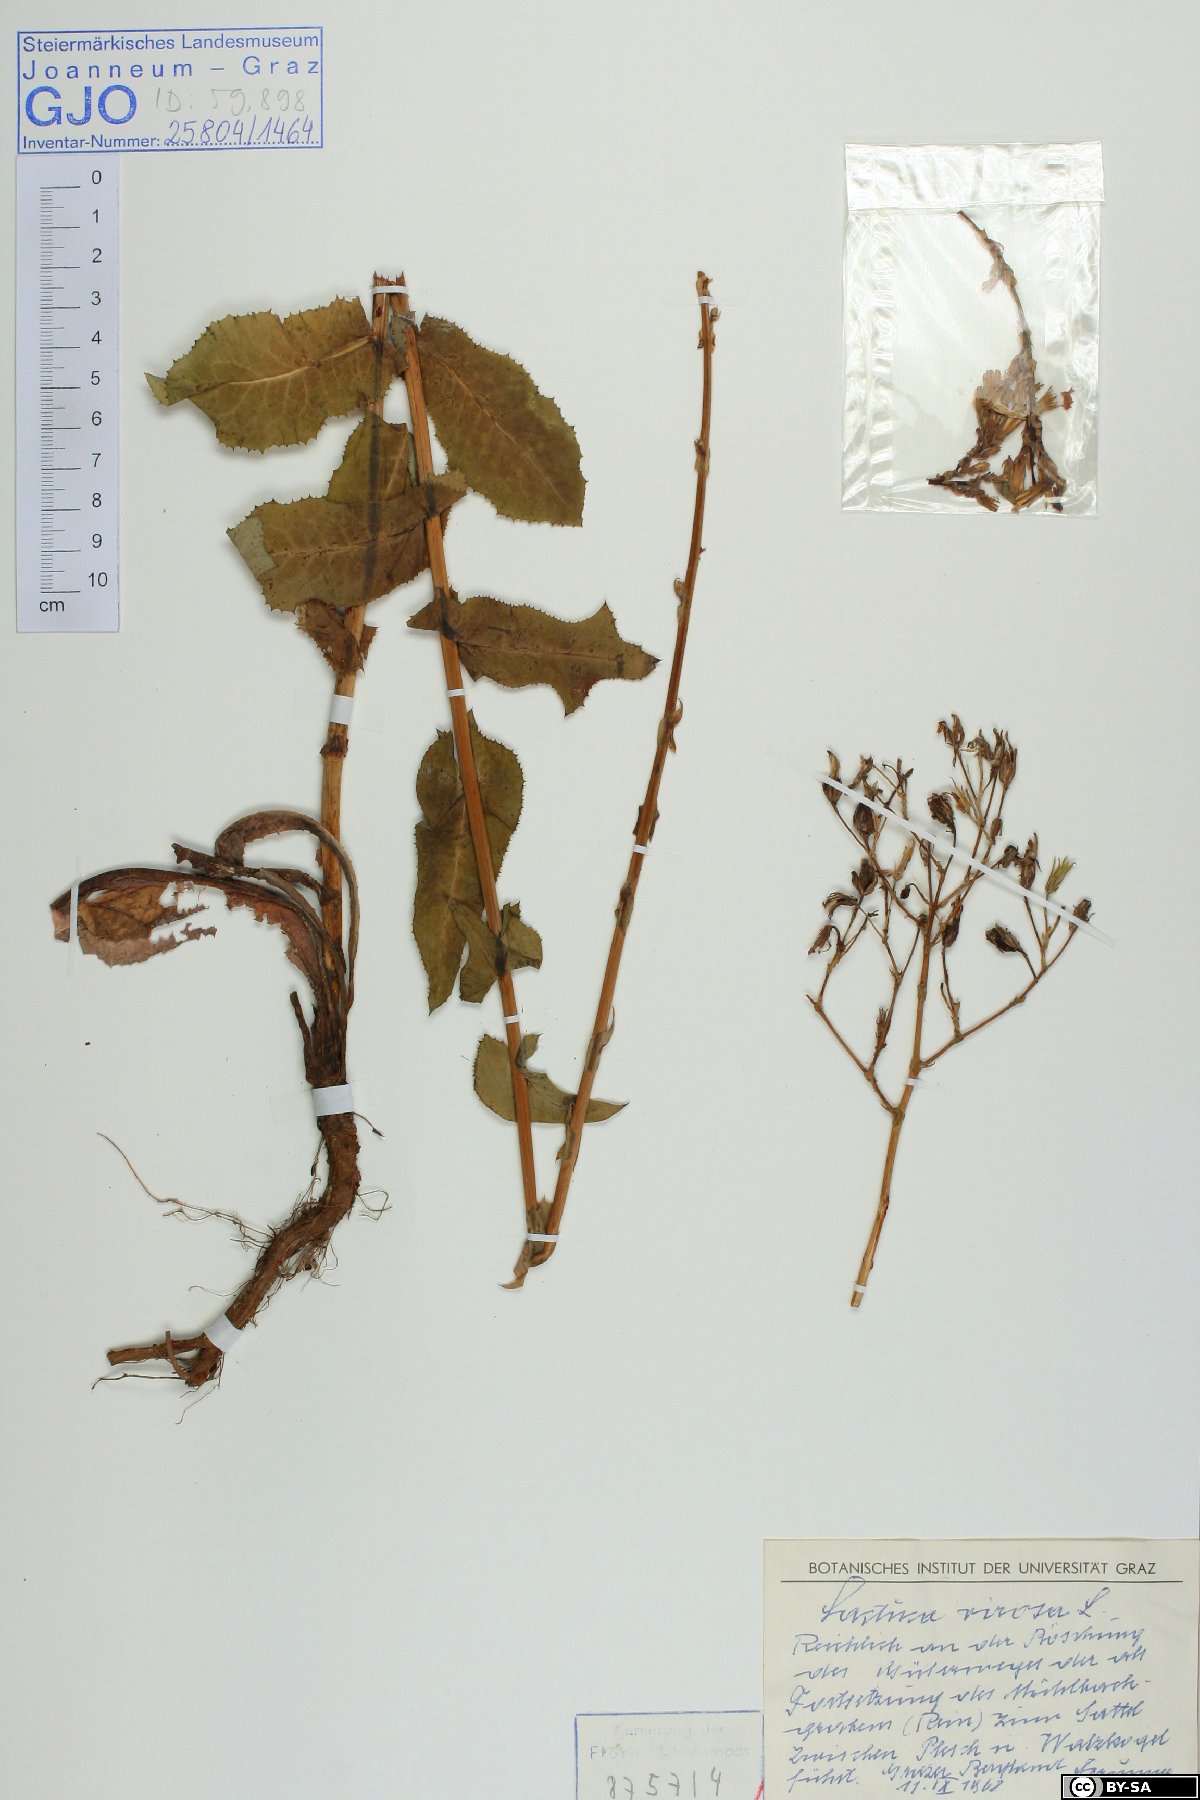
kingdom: Plantae
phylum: Tracheophyta
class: Magnoliopsida
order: Asterales
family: Asteraceae
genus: Lactuca
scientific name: Lactuca virosa
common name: Great lettuce
